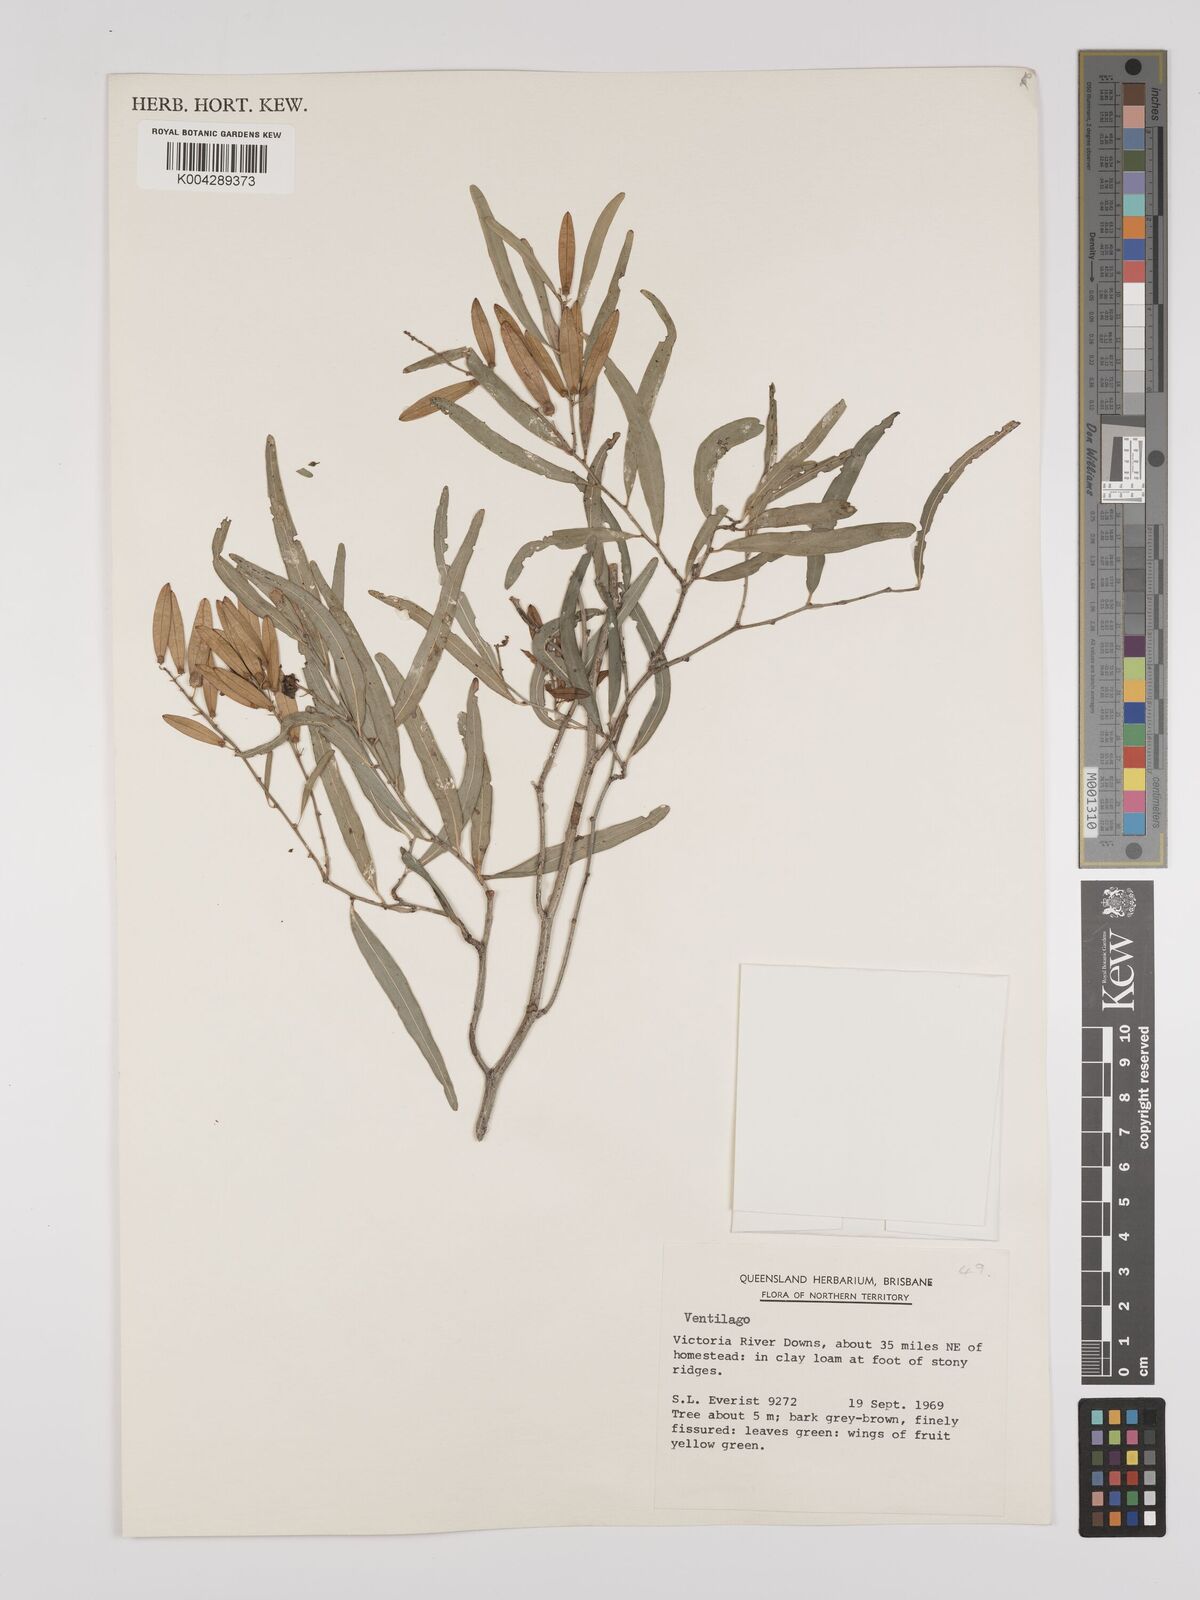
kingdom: Plantae
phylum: Tracheophyta
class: Magnoliopsida
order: Rosales
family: Rhamnaceae
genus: Ventilago
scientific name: Ventilago viminalis
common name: Medicine-bark
